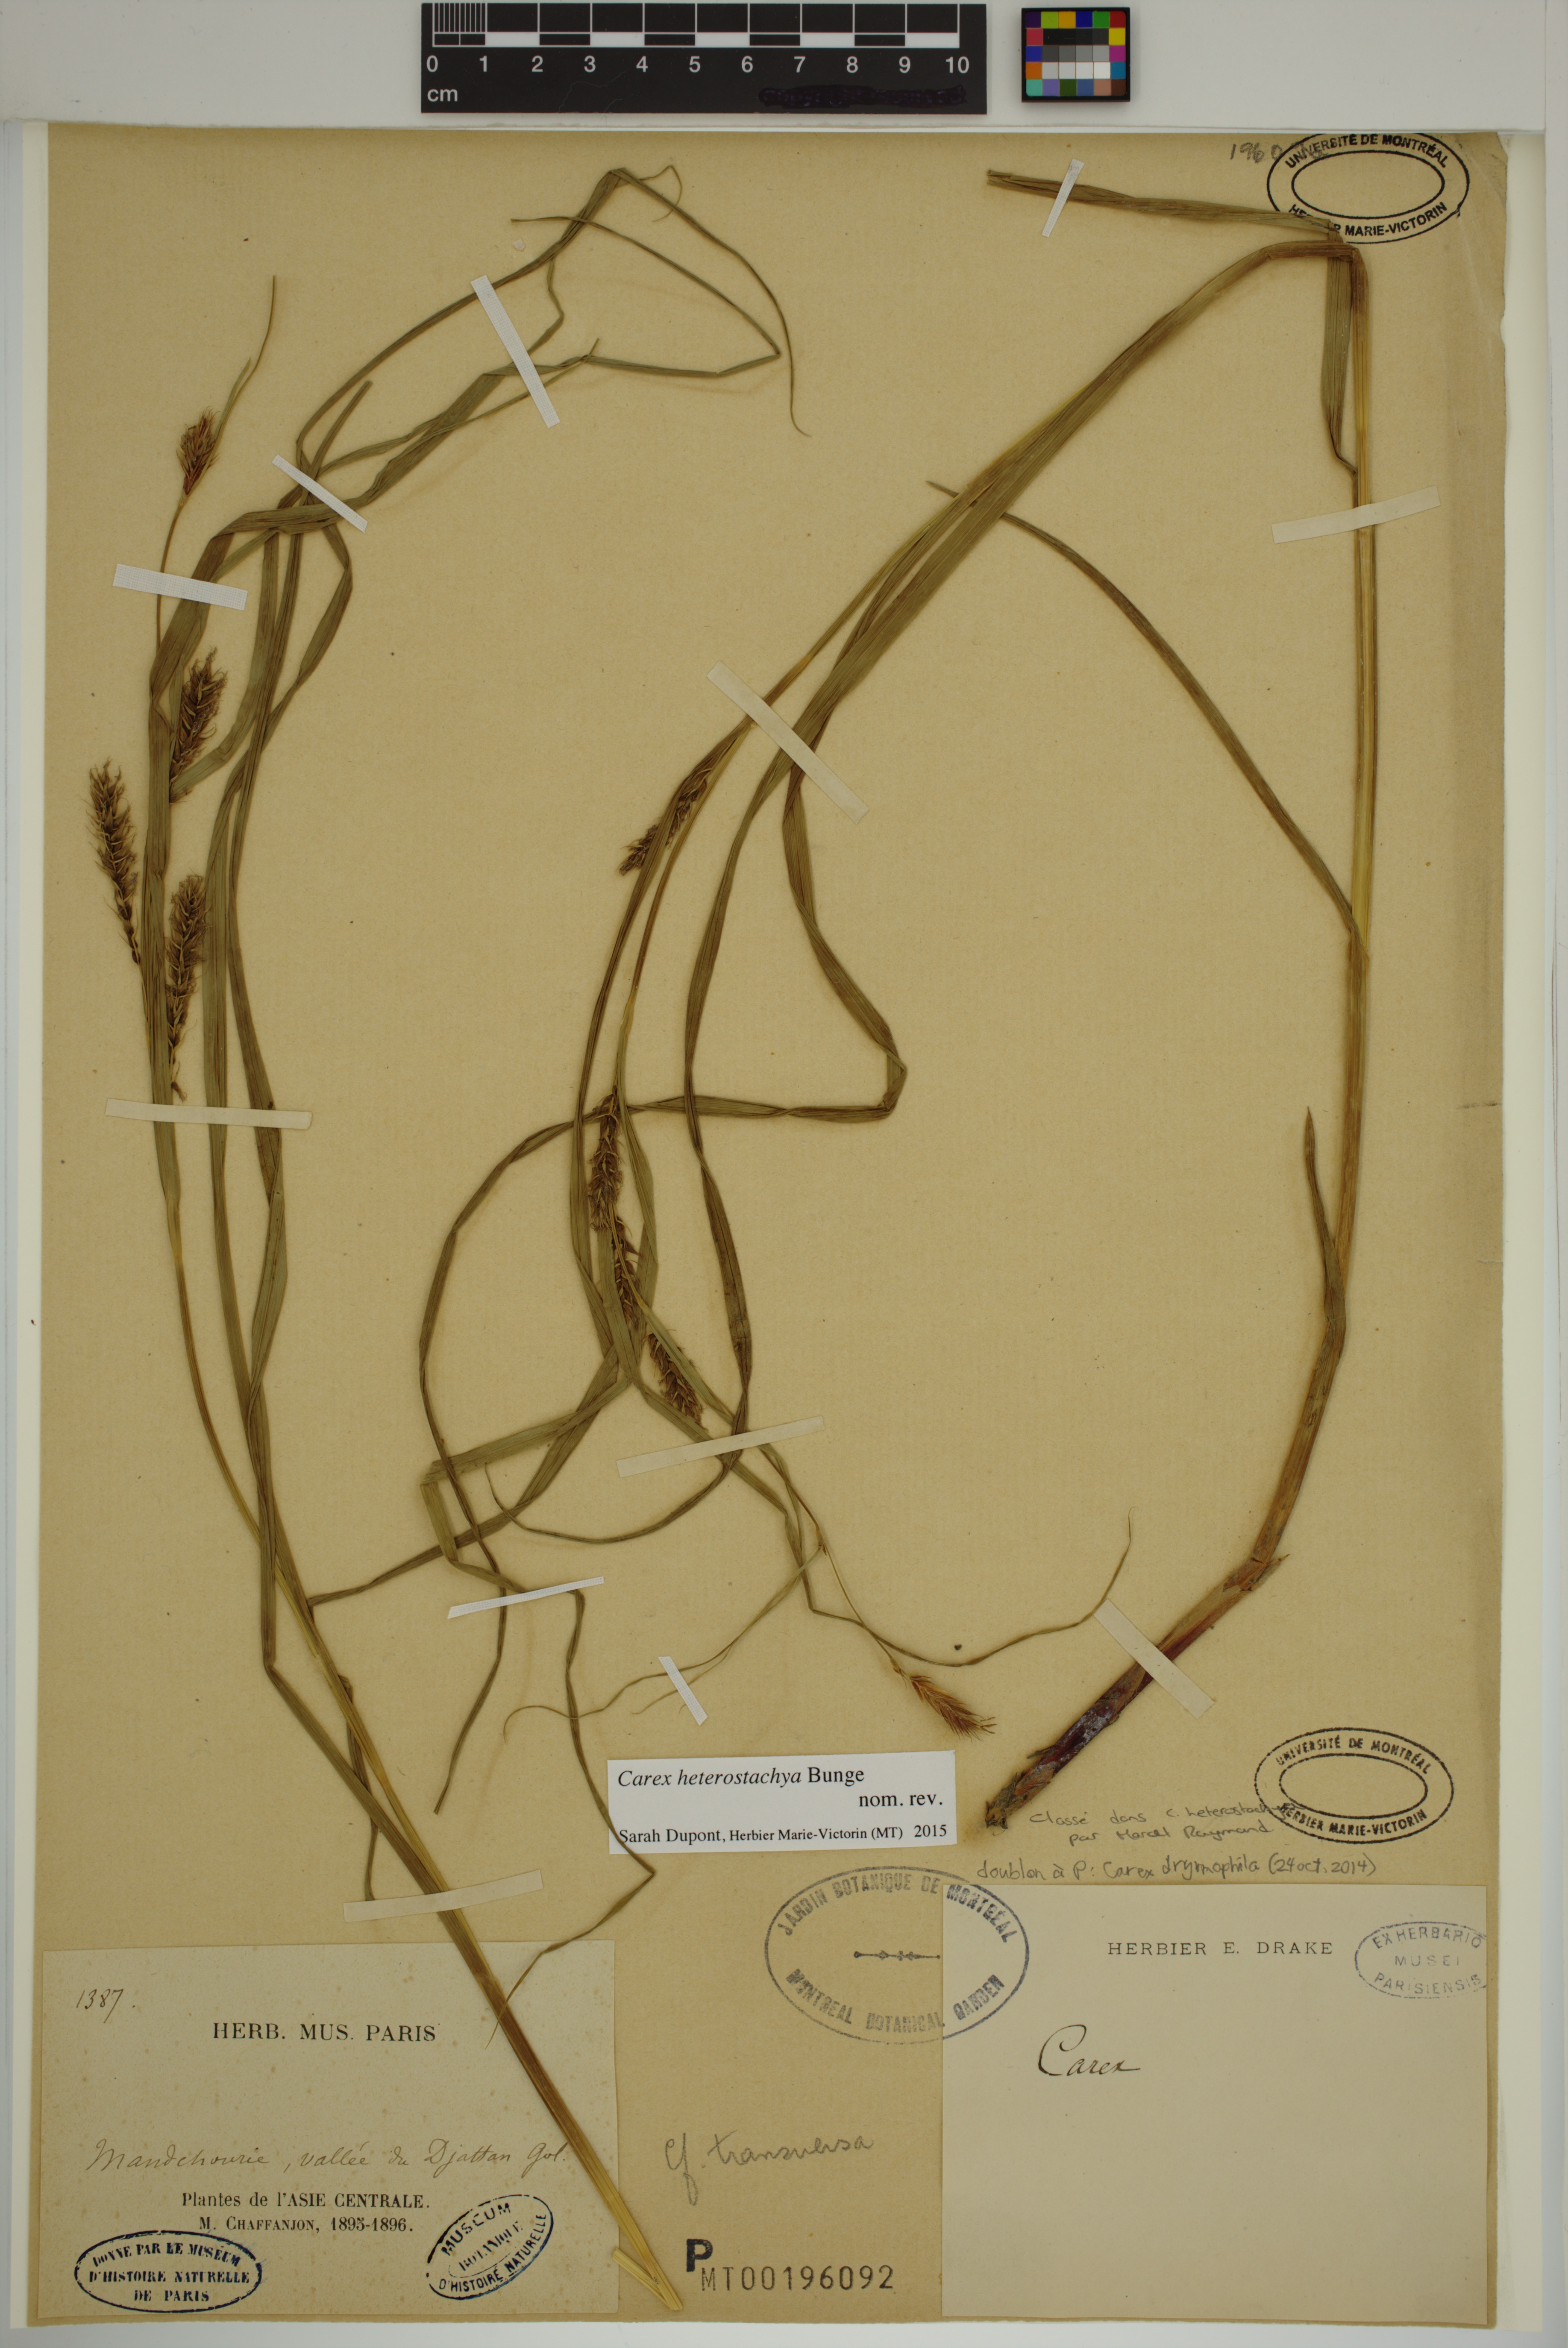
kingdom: Plantae
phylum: Tracheophyta
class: Liliopsida
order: Poales
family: Cyperaceae
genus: Carex
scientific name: Carex heterostachya
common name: Different-spike sedge
